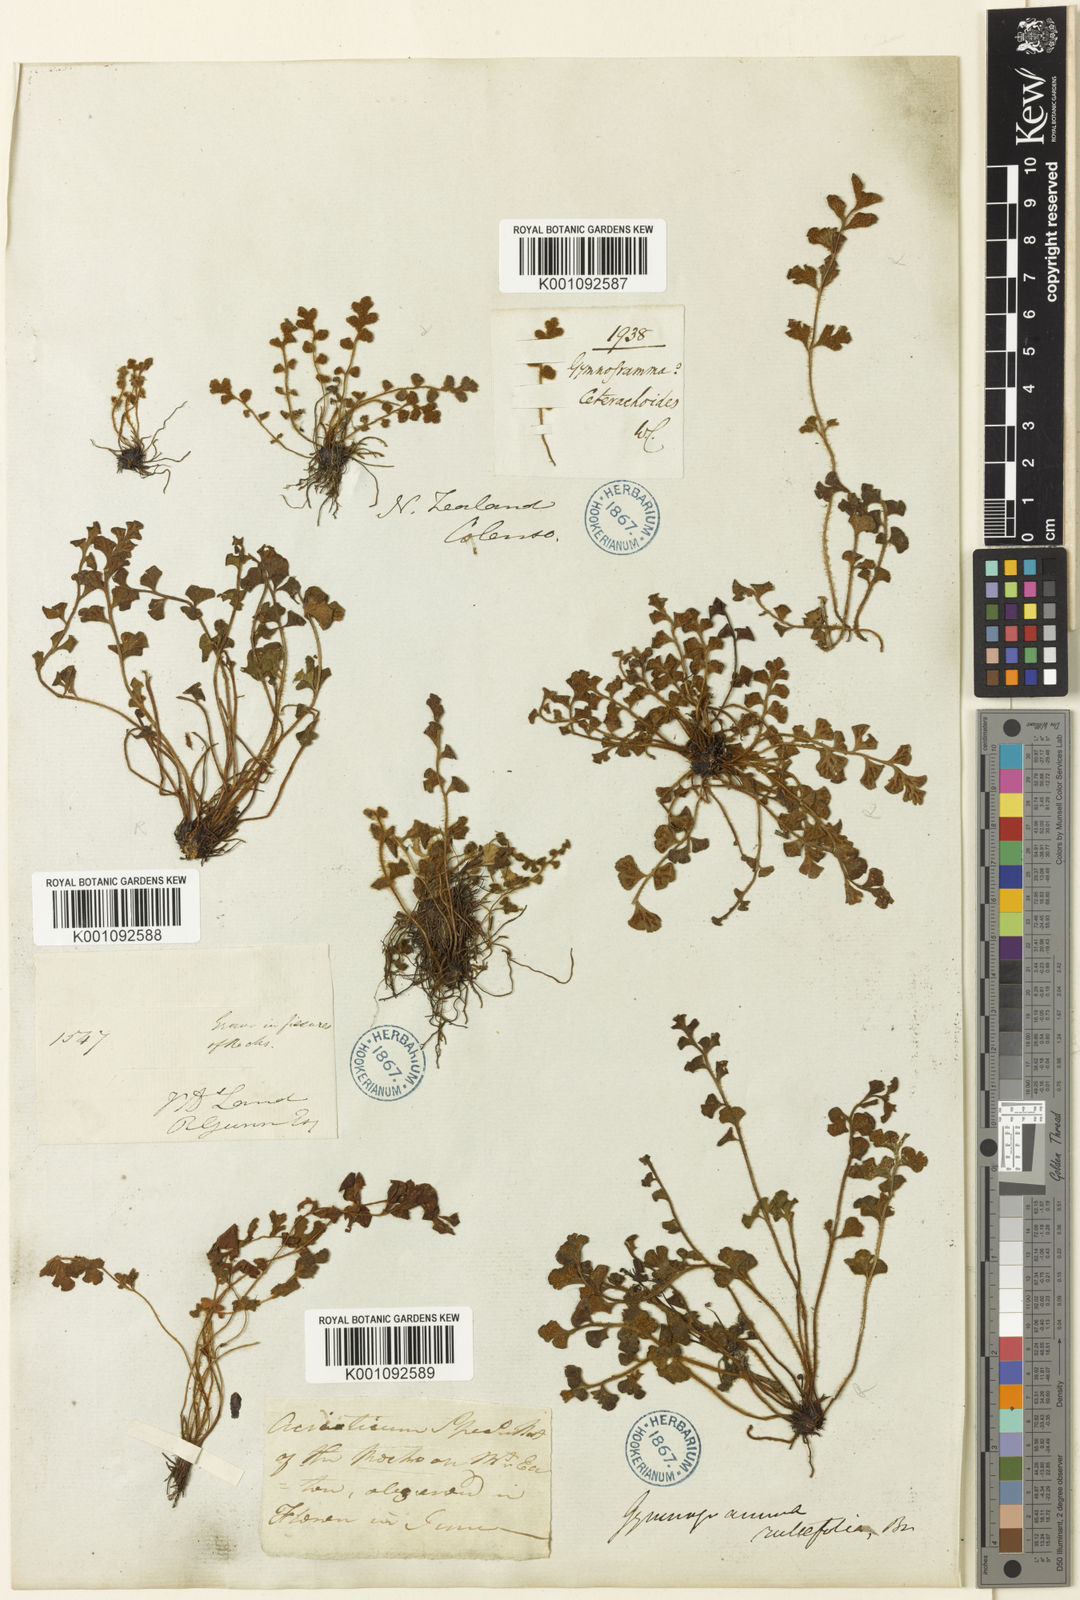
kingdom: Plantae
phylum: Tracheophyta
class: Polypodiopsida
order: Polypodiales
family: Aspleniaceae
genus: Asplenium
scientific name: Asplenium
